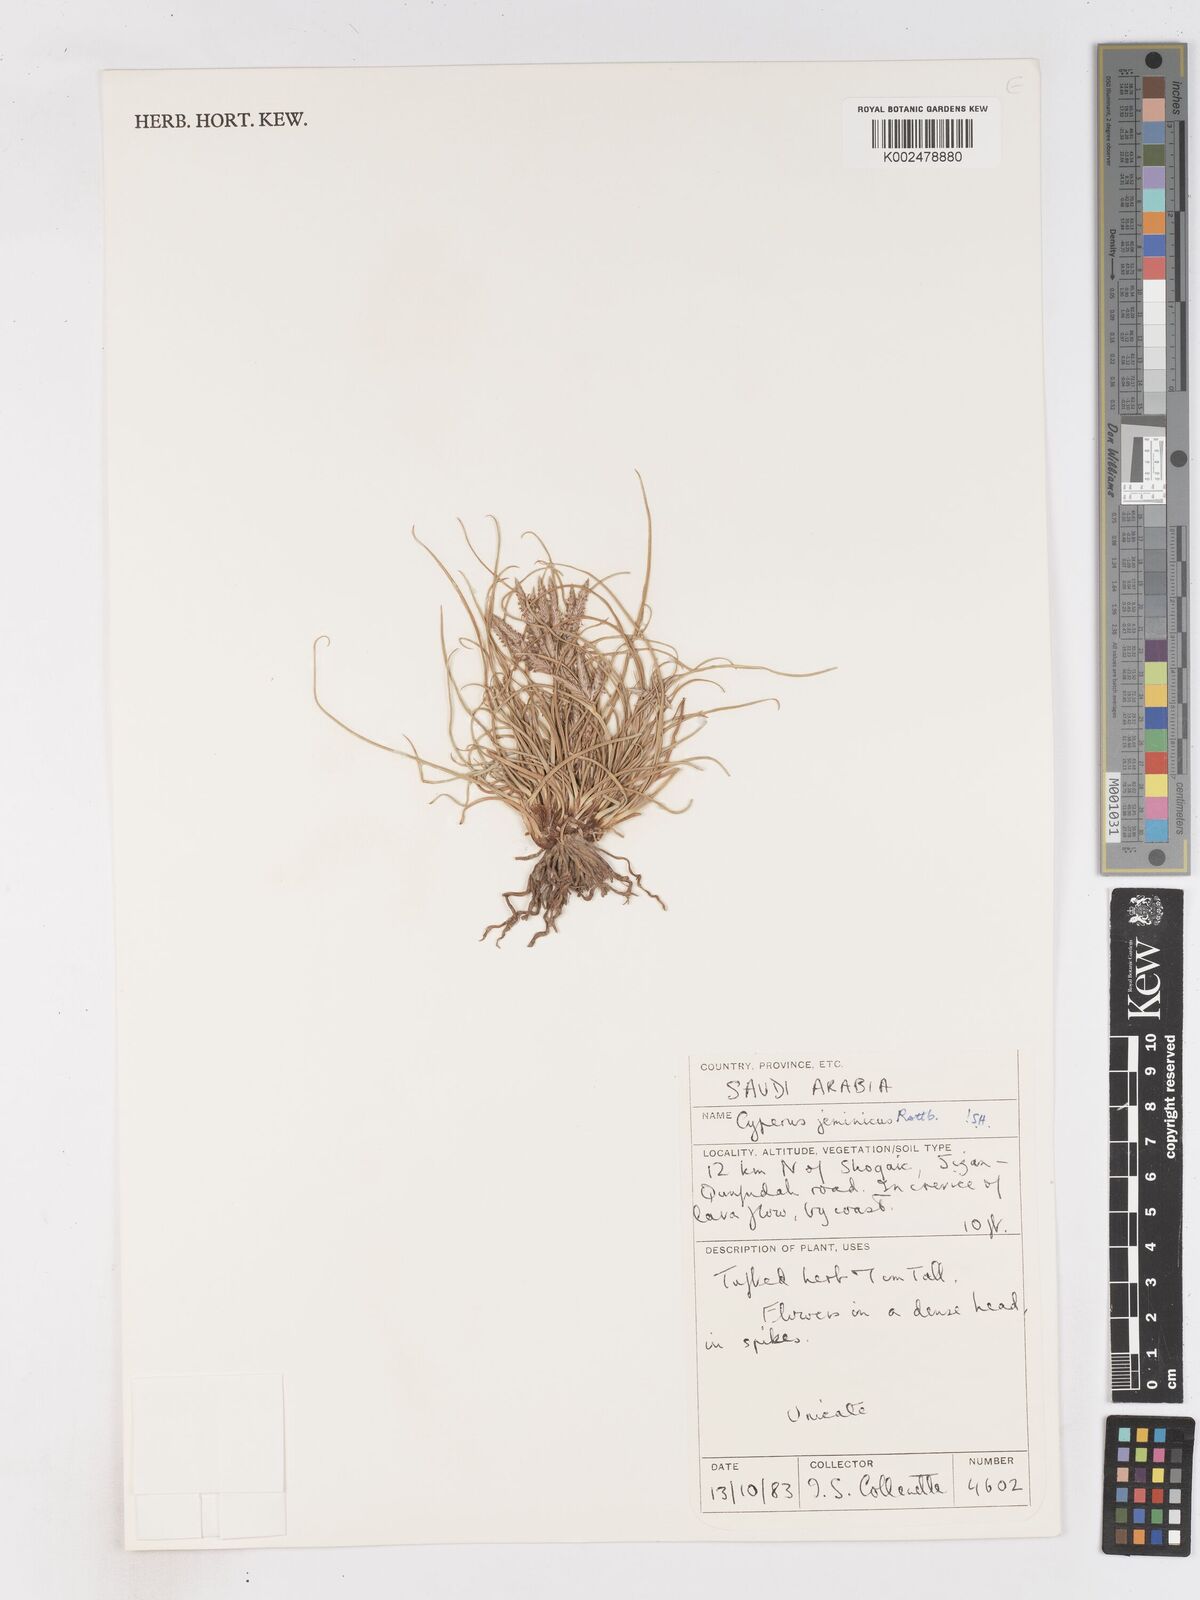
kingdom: Plantae
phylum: Tracheophyta
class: Liliopsida
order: Poales
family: Cyperaceae
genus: Cyperus
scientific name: Cyperus jeminicus
